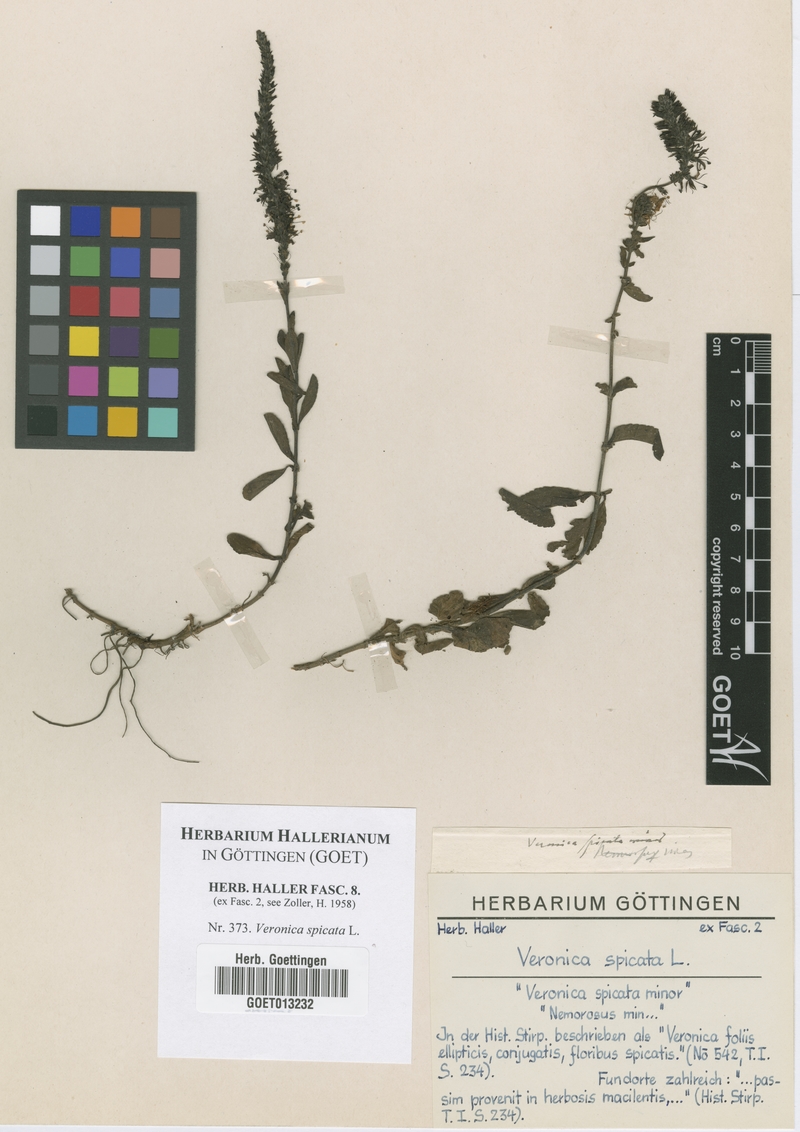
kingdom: Plantae
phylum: Tracheophyta
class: Magnoliopsida
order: Lamiales
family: Plantaginaceae
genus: Veronica
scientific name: Veronica spicata
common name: Spiked speedwell
